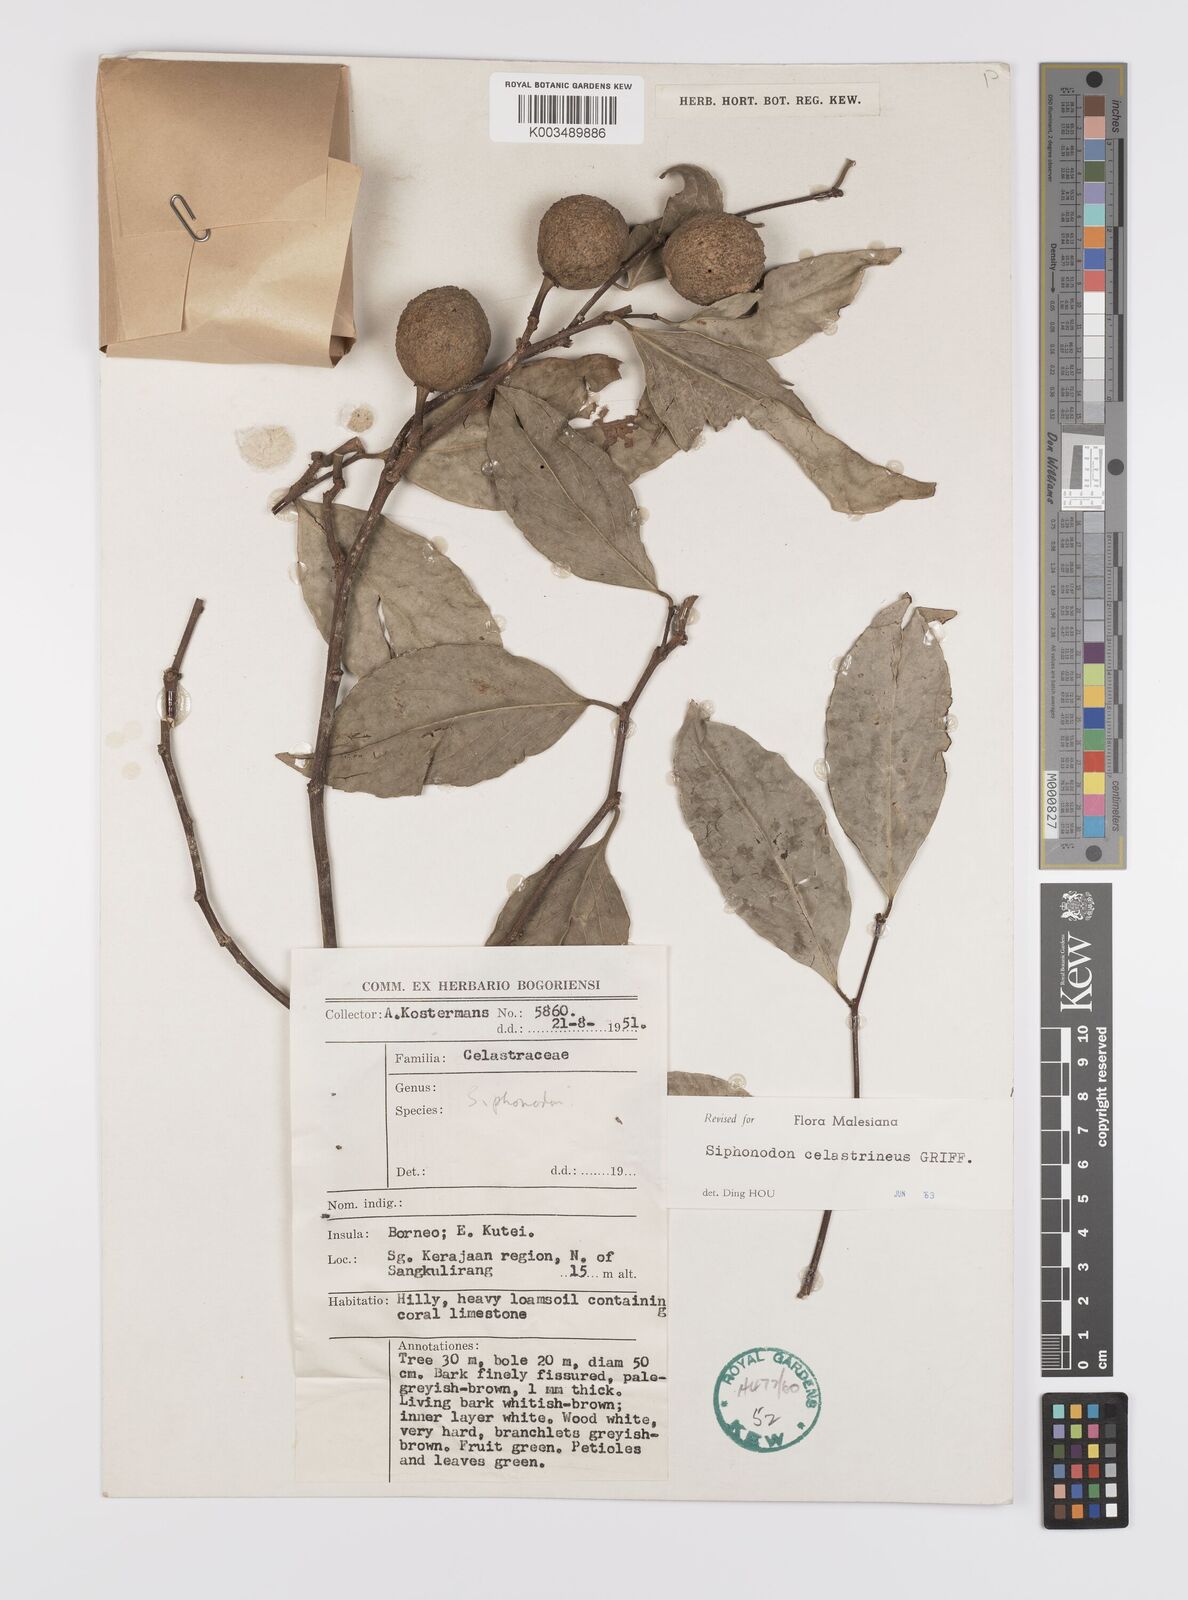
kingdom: Plantae
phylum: Tracheophyta
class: Magnoliopsida
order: Celastrales
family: Celastraceae
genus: Siphonodon
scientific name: Siphonodon celastrineus
